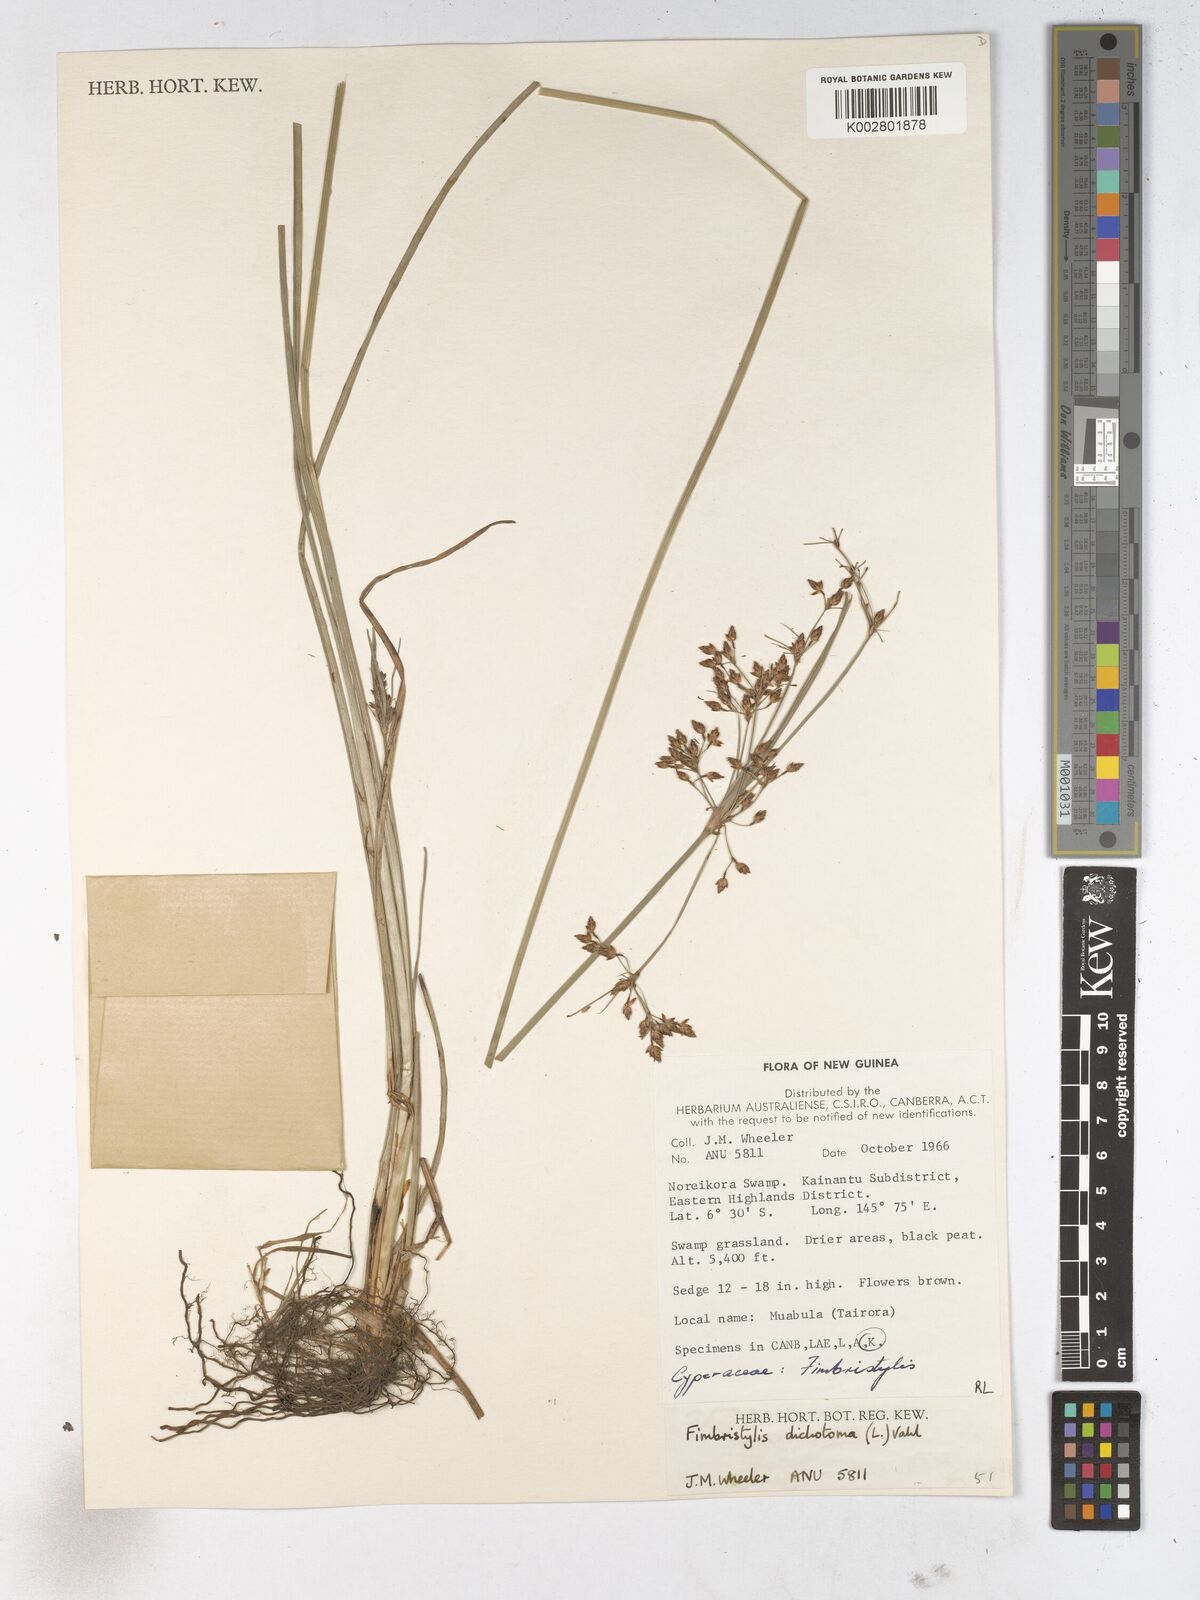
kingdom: Plantae
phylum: Tracheophyta
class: Liliopsida
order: Poales
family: Cyperaceae
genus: Fimbristylis
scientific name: Fimbristylis dichotoma
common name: Forked fimbry
